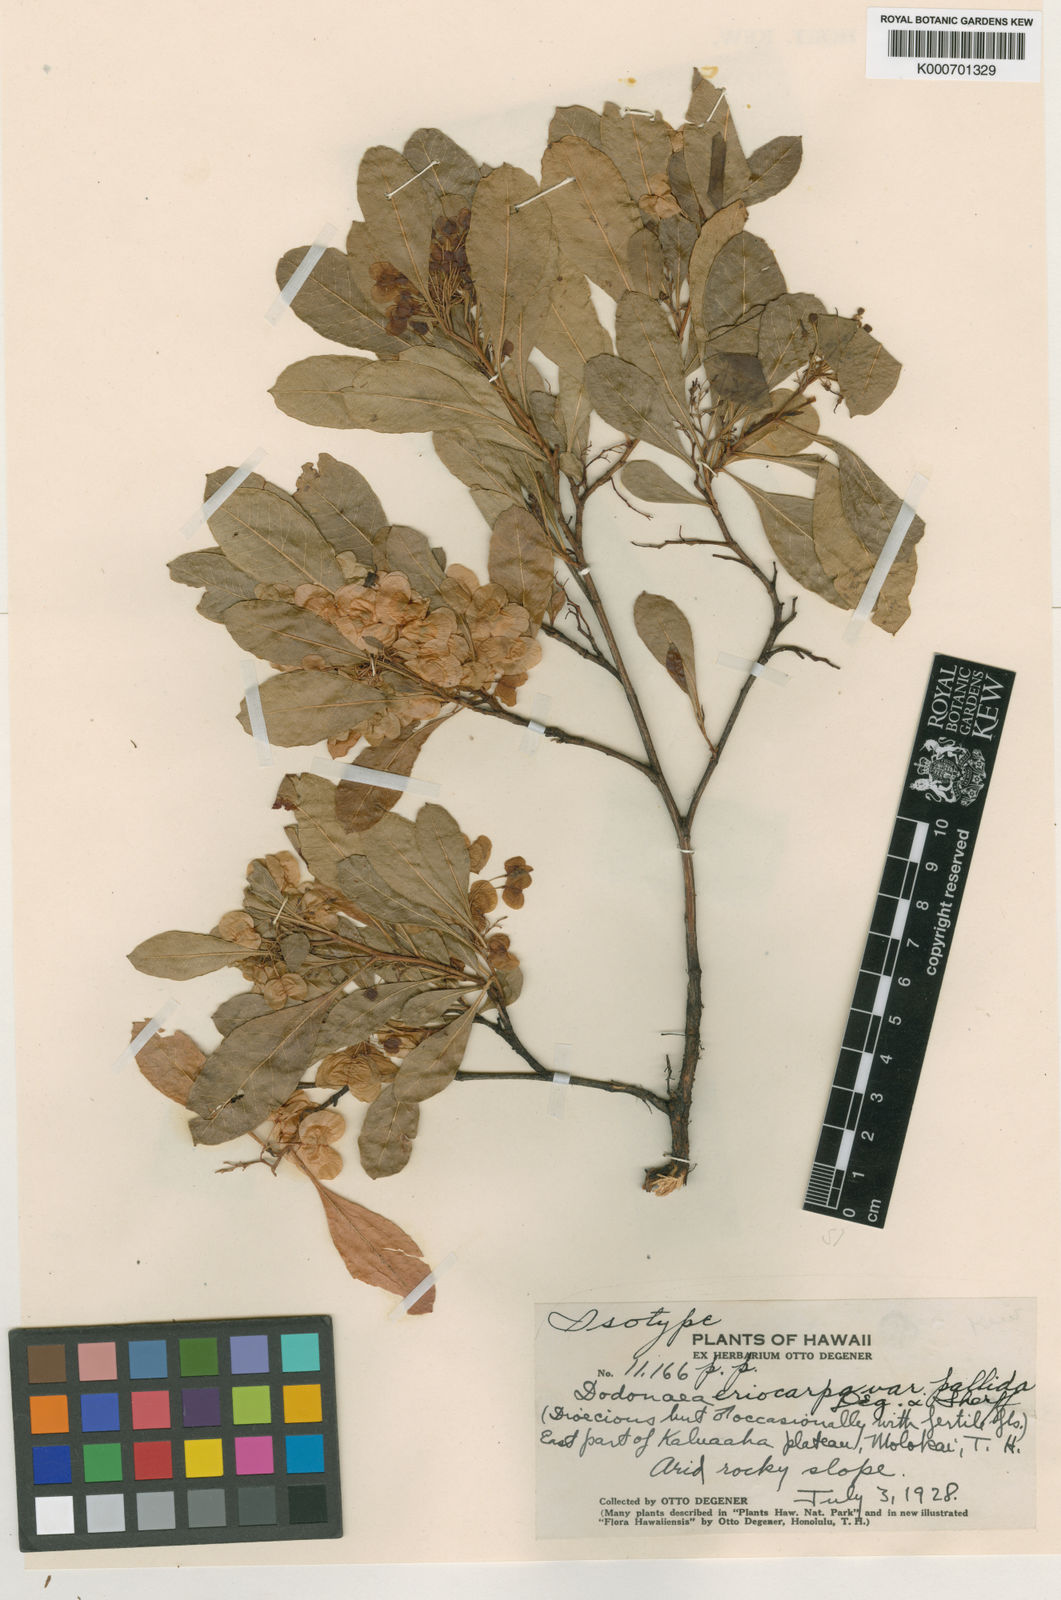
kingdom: Plantae
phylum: Tracheophyta
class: Magnoliopsida
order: Sapindales
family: Sapindaceae
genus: Dodonaea
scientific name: Dodonaea viscosa
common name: Hopbush
